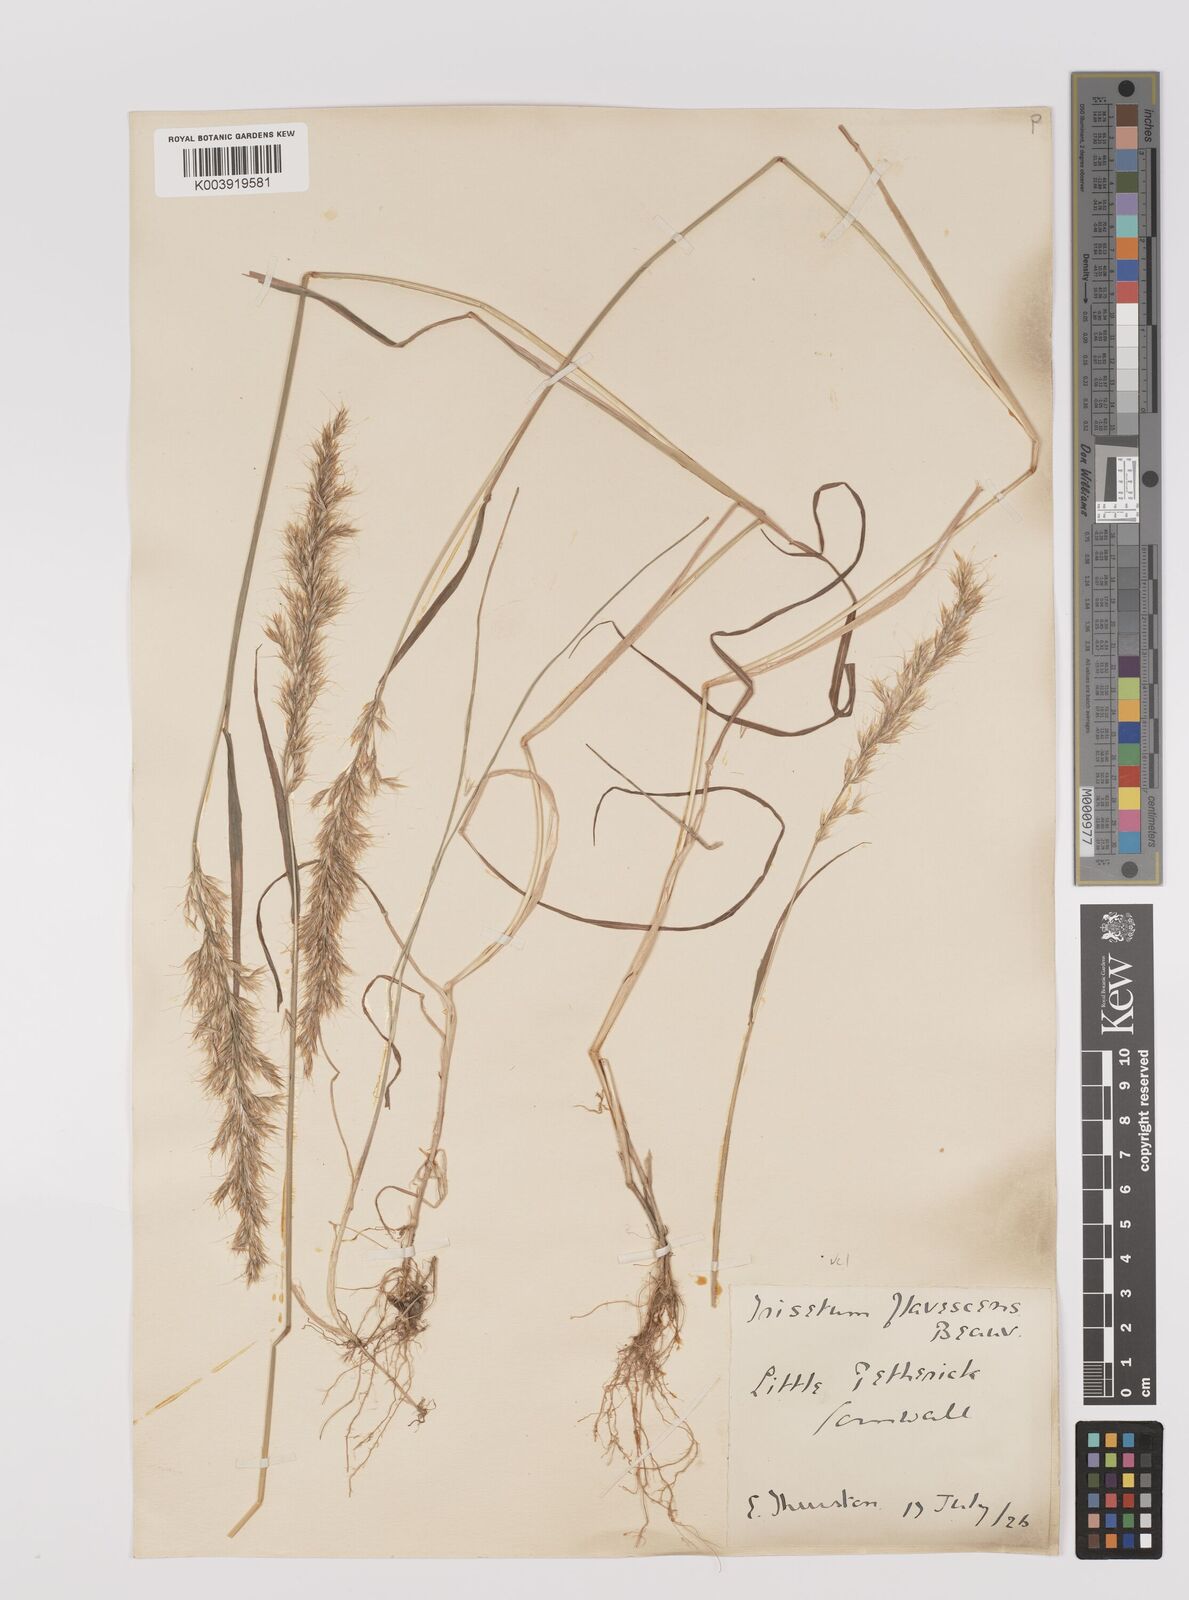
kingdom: Plantae
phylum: Tracheophyta
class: Liliopsida
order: Poales
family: Poaceae
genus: Trisetum
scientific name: Trisetum flavescens
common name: Yellow oat-grass
